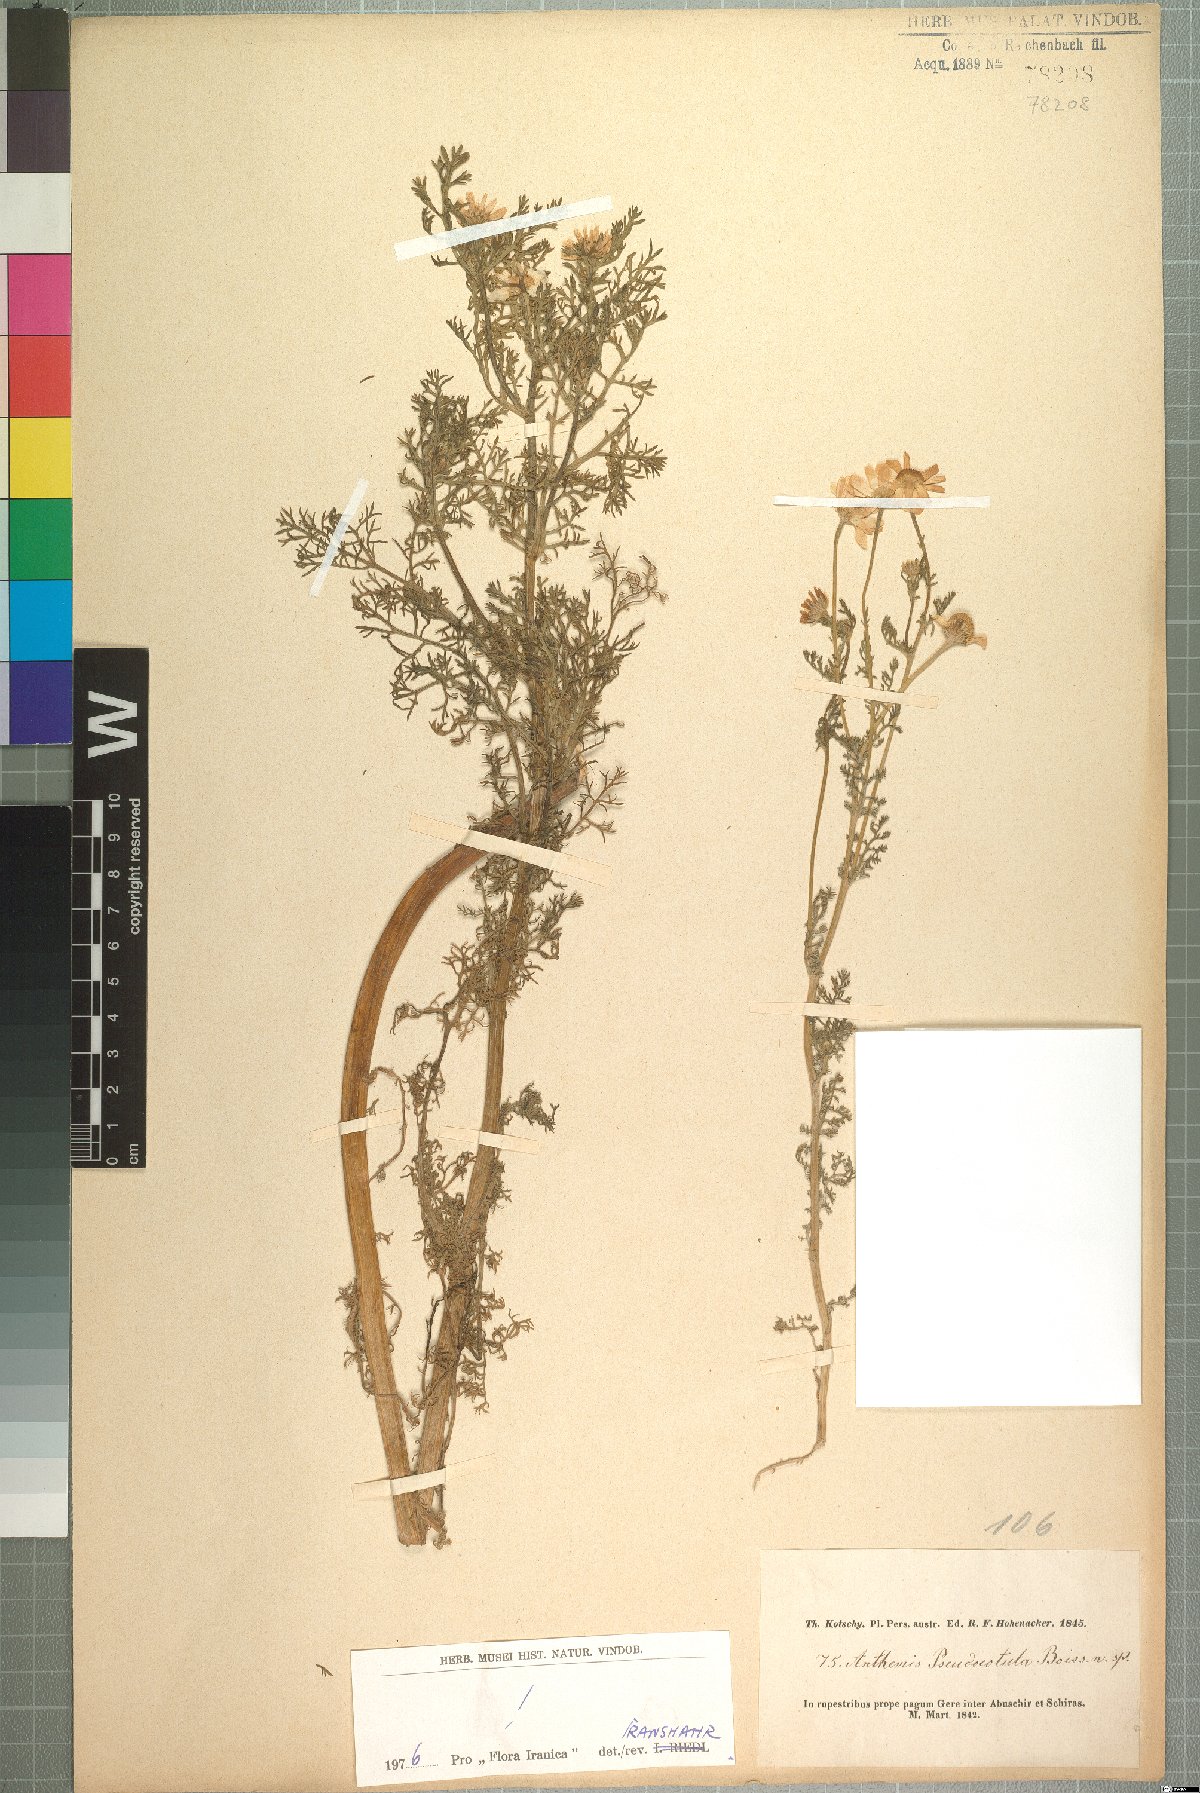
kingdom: Plantae
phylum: Tracheophyta
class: Magnoliopsida
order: Asterales
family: Asteraceae
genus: Anthemis
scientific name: Anthemis pseudocotula
